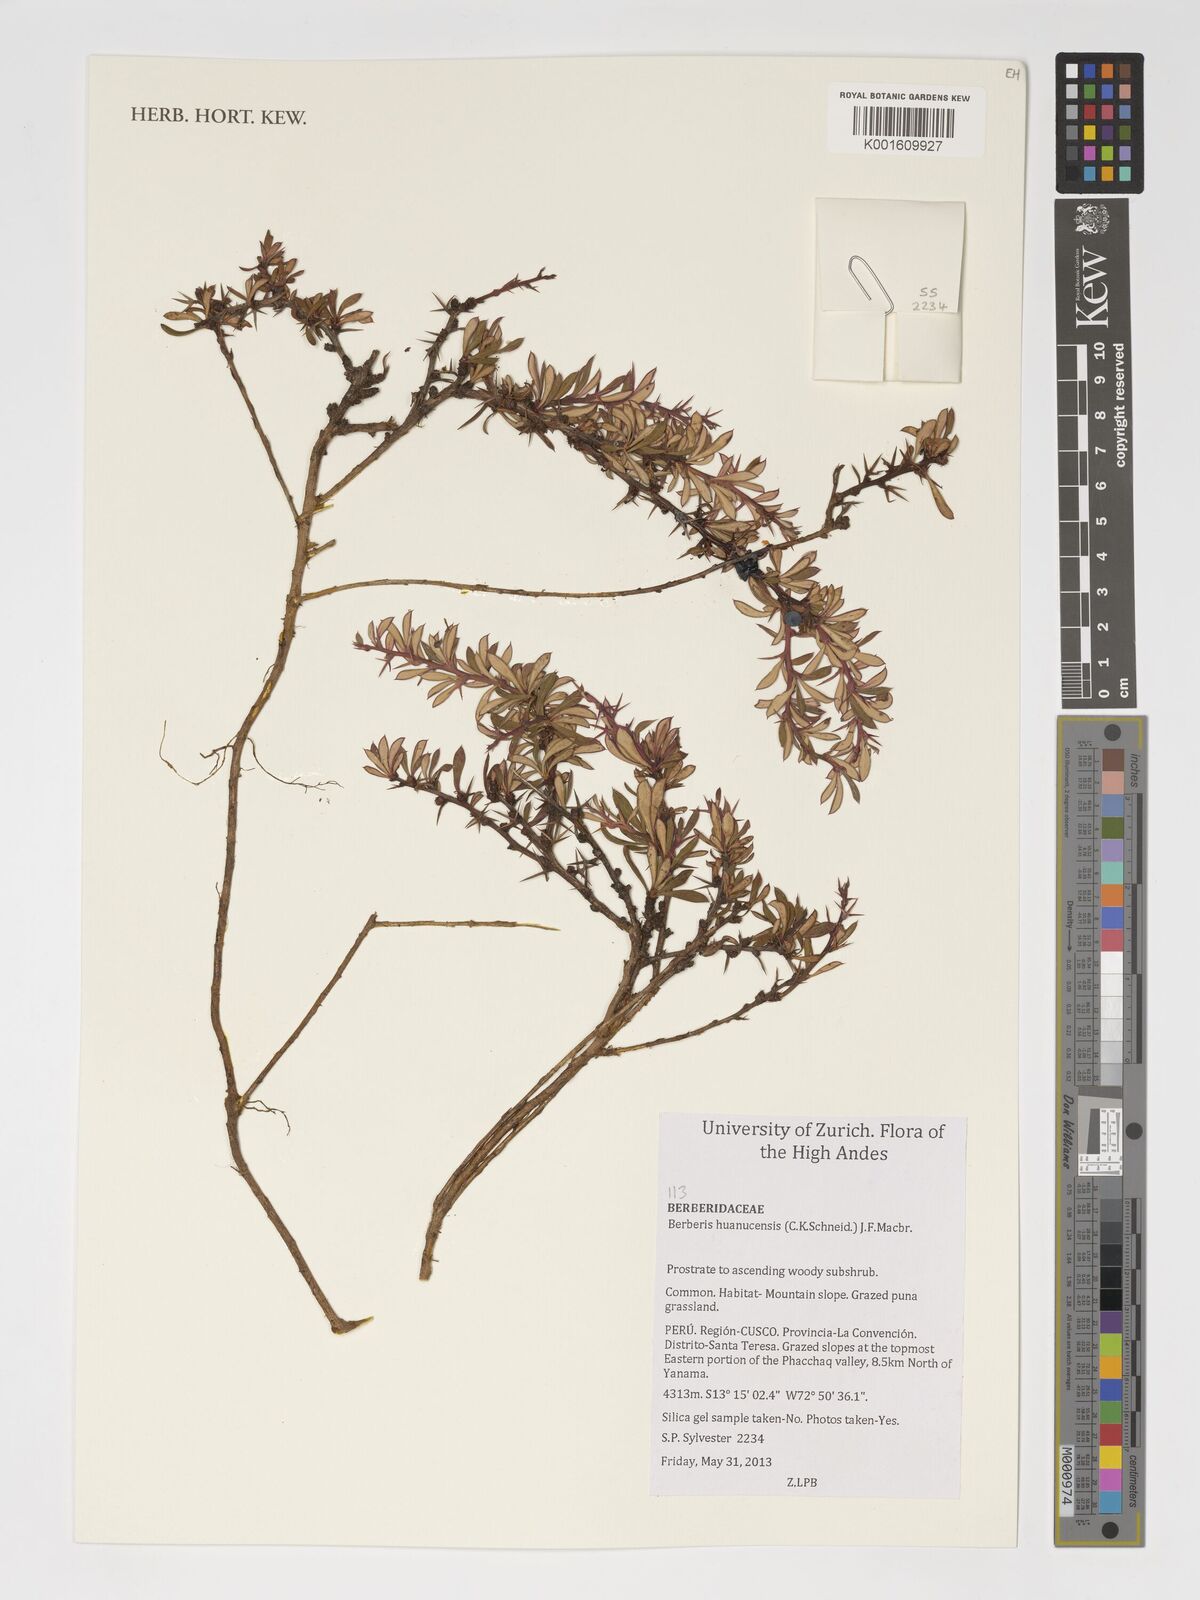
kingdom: Plantae
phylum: Tracheophyta
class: Magnoliopsida
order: Ranunculales
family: Berberidaceae
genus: Berberis
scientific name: Berberis lutea
